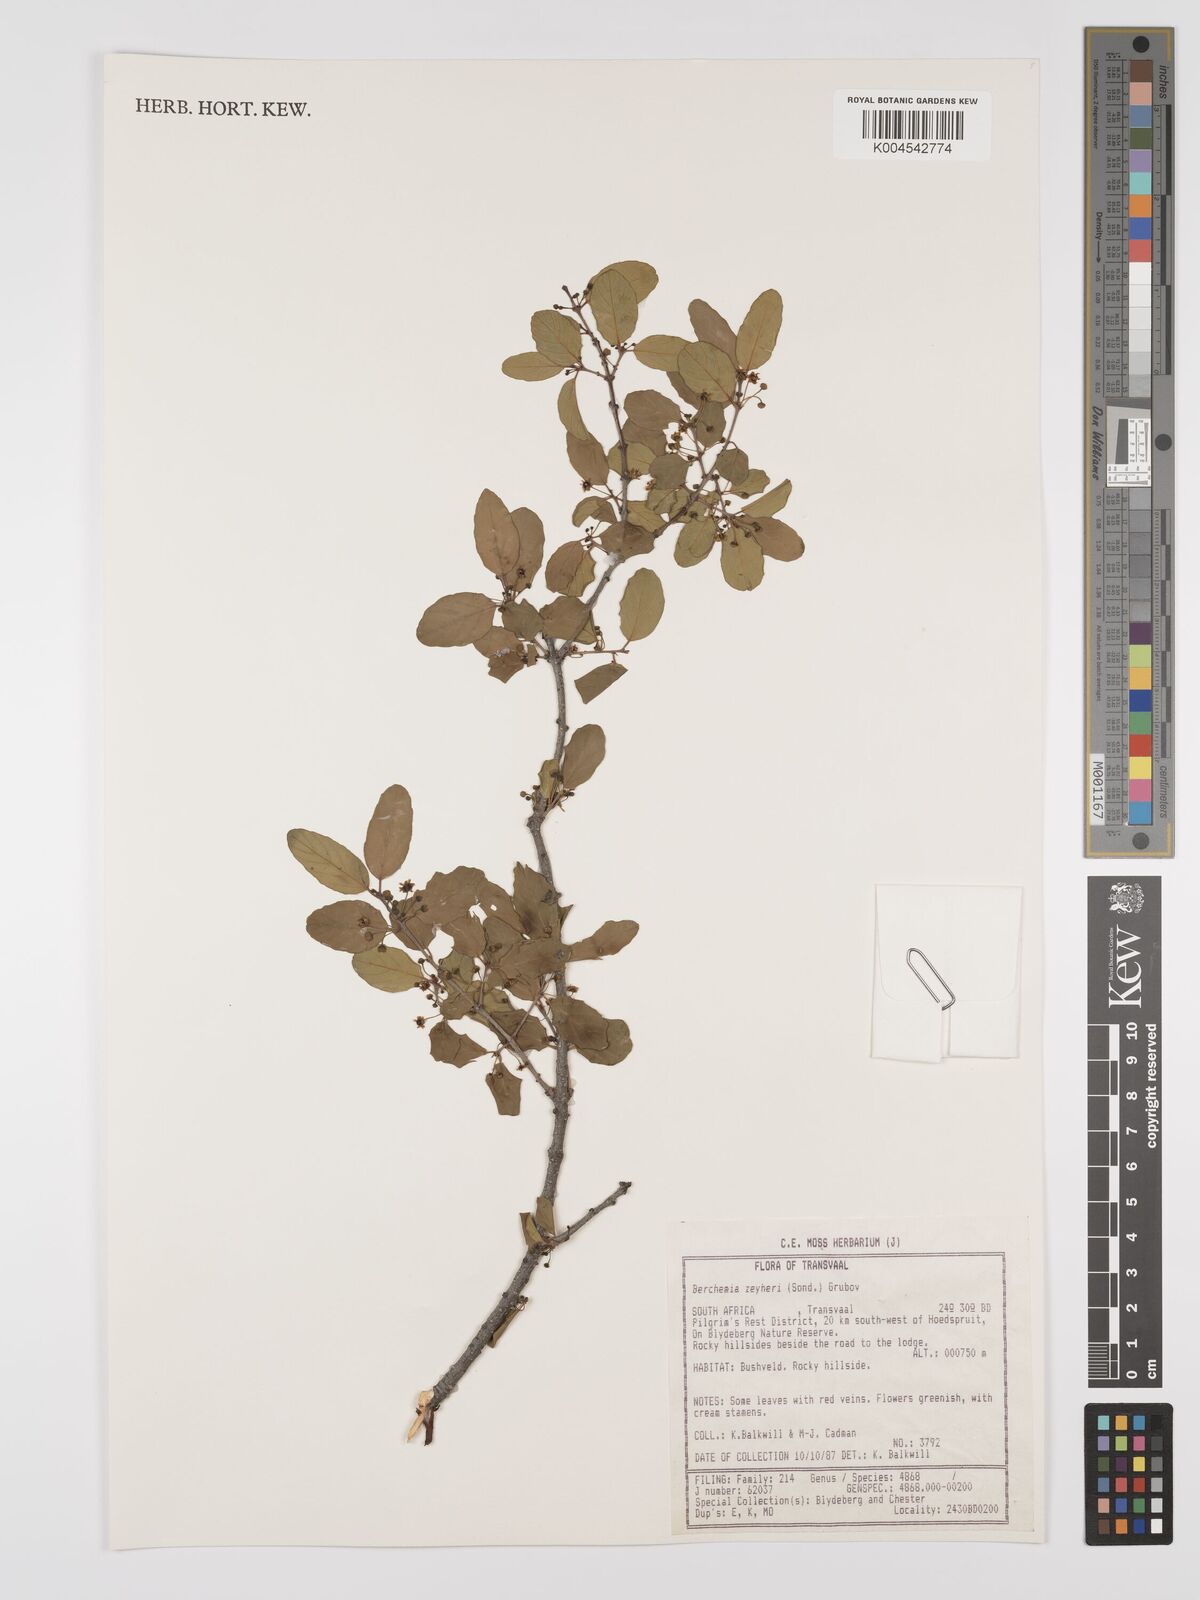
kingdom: Plantae
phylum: Tracheophyta
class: Magnoliopsida
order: Rosales
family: Rhamnaceae
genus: Phyllogeiton
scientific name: Phyllogeiton zeyheri
